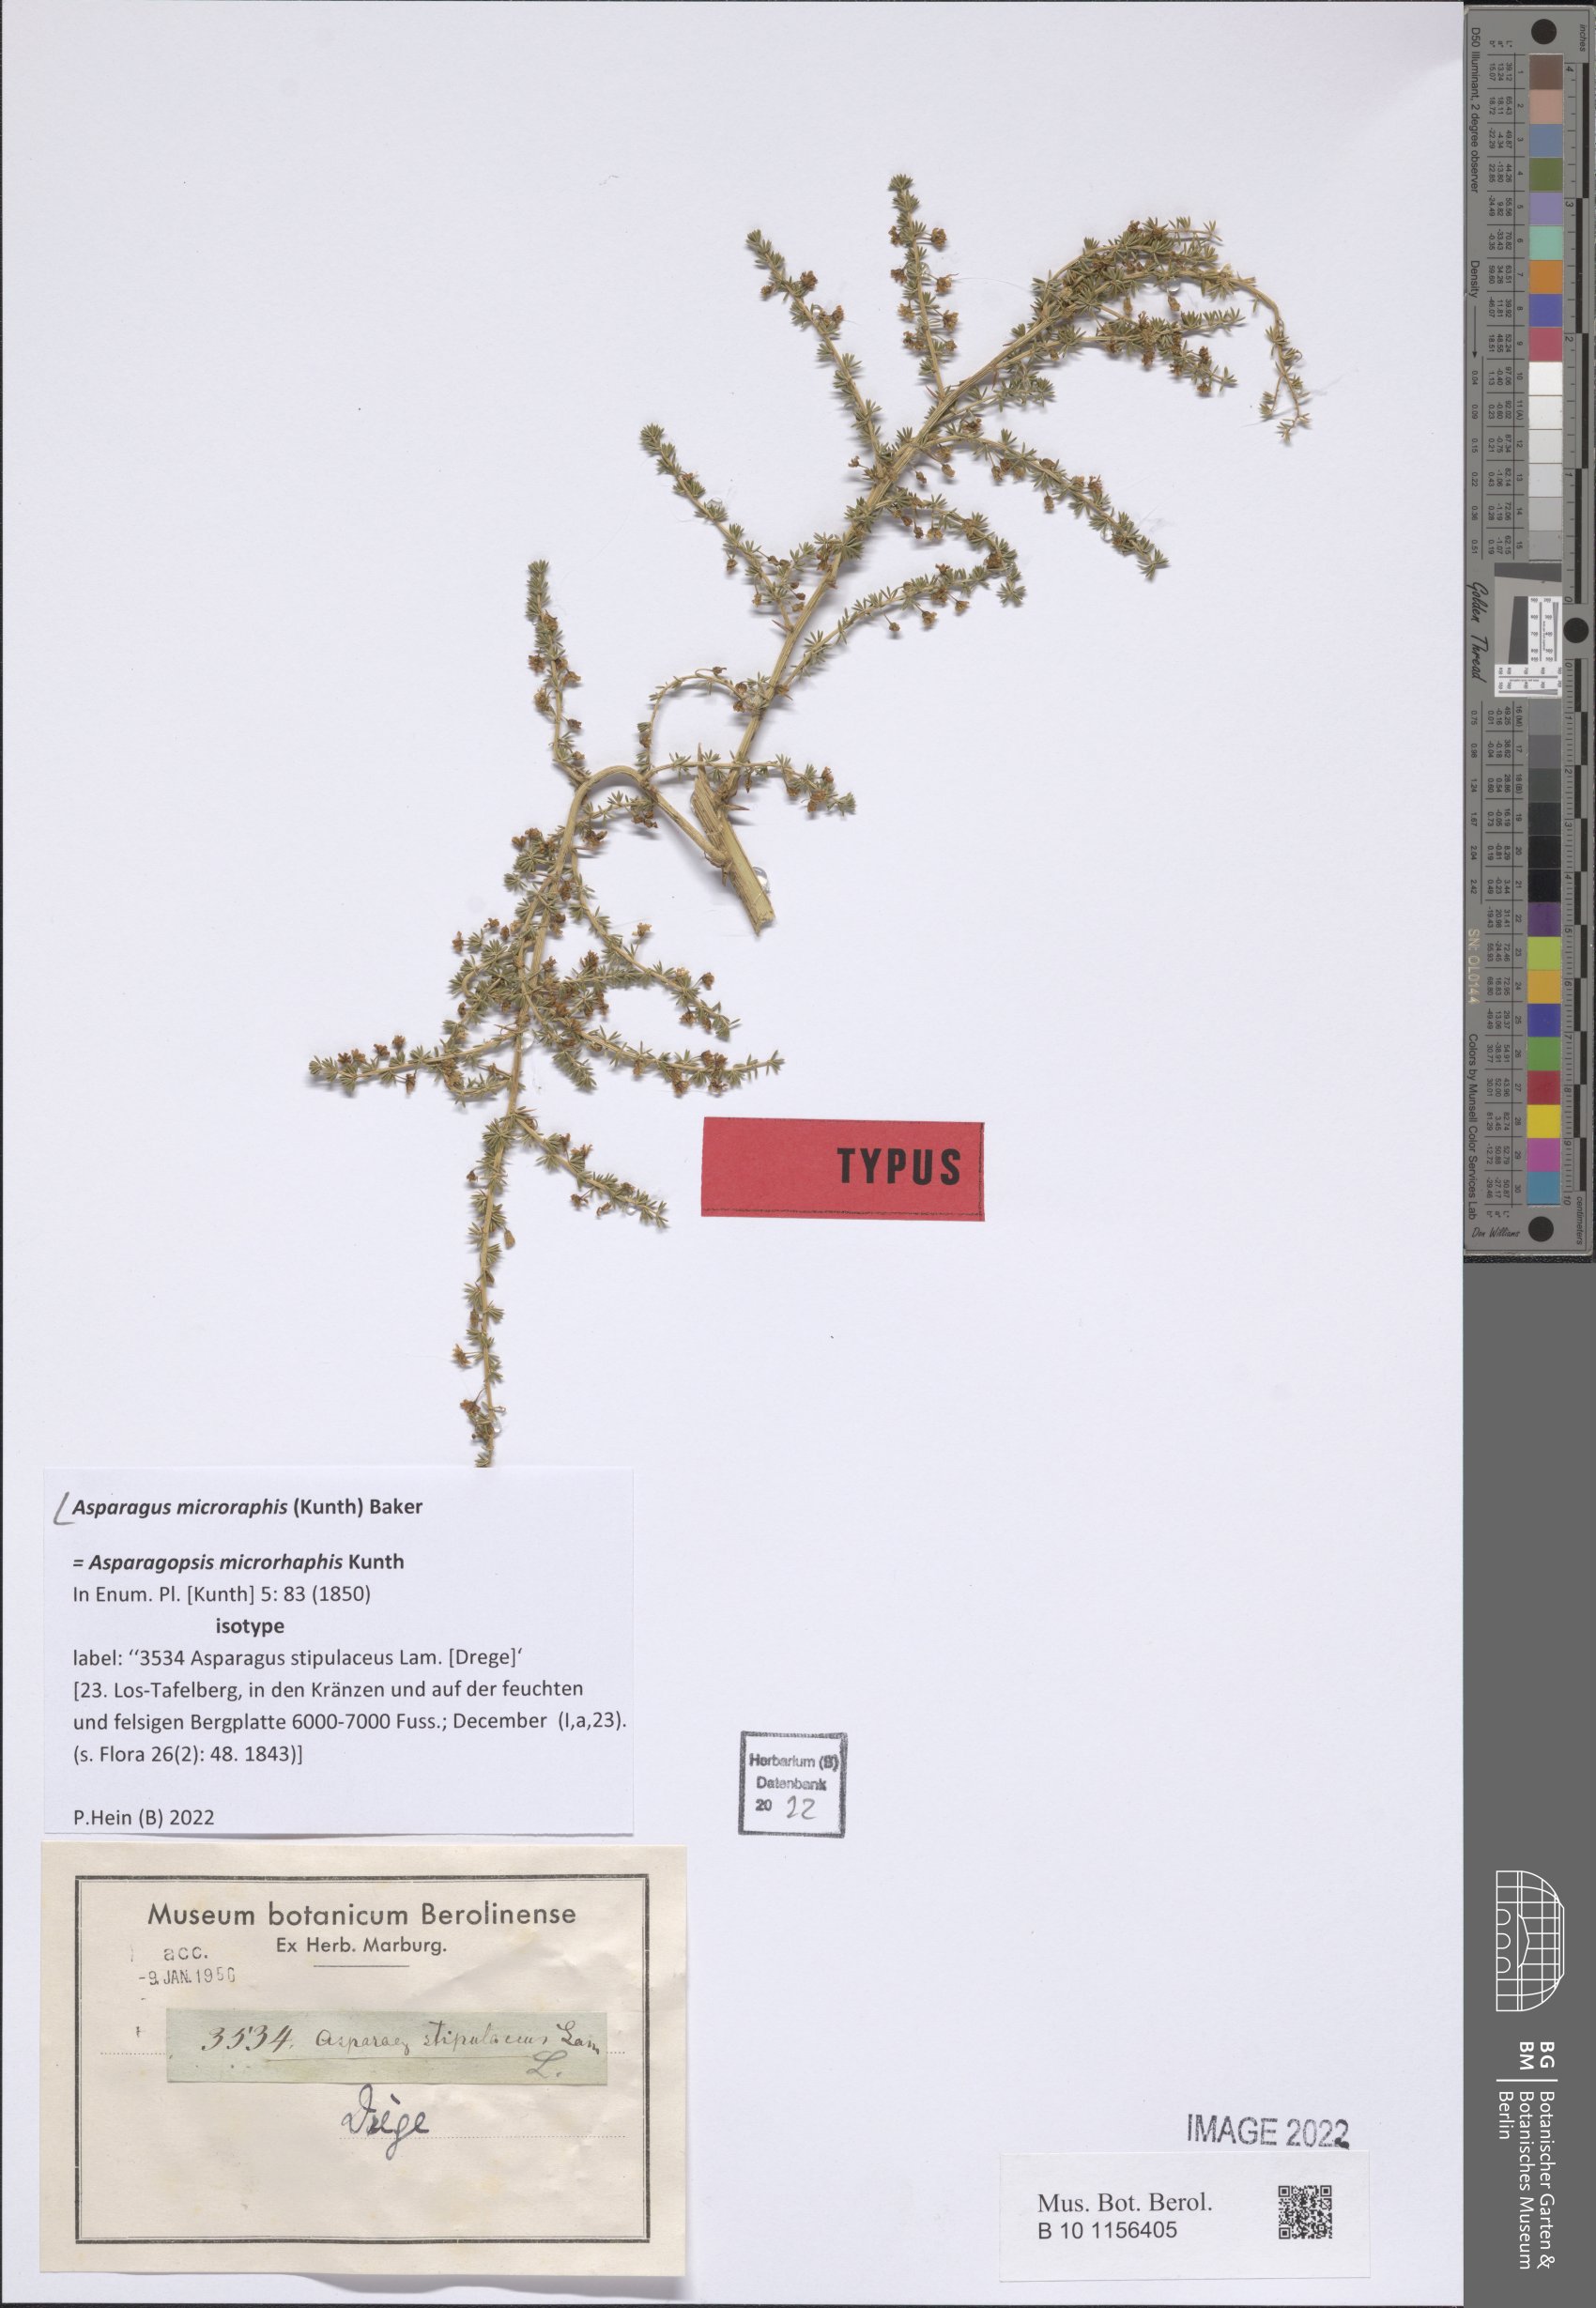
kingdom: Plantae
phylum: Tracheophyta
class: Liliopsida
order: Asparagales
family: Asparagaceae
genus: Asparagus
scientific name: Asparagus microraphis
